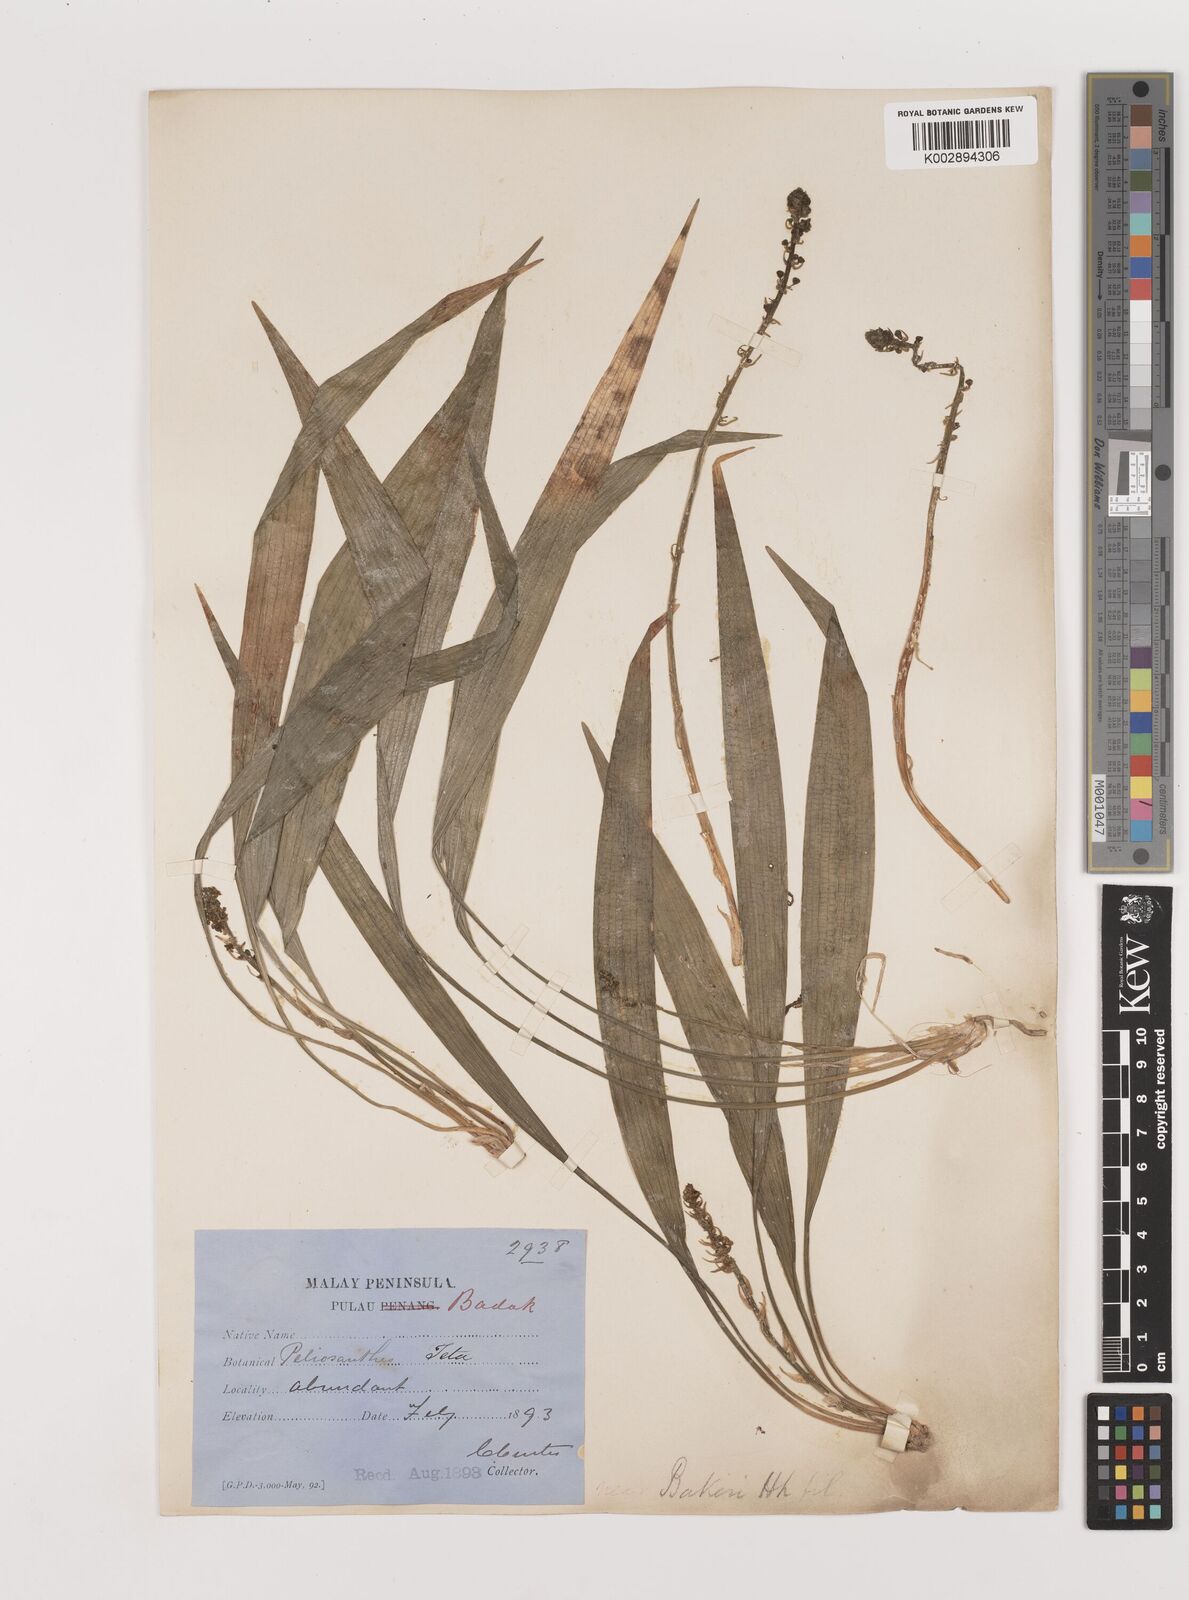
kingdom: Plantae
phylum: Tracheophyta
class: Liliopsida
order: Asparagales
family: Asparagaceae
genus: Peliosanthes
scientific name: Peliosanthes teta
